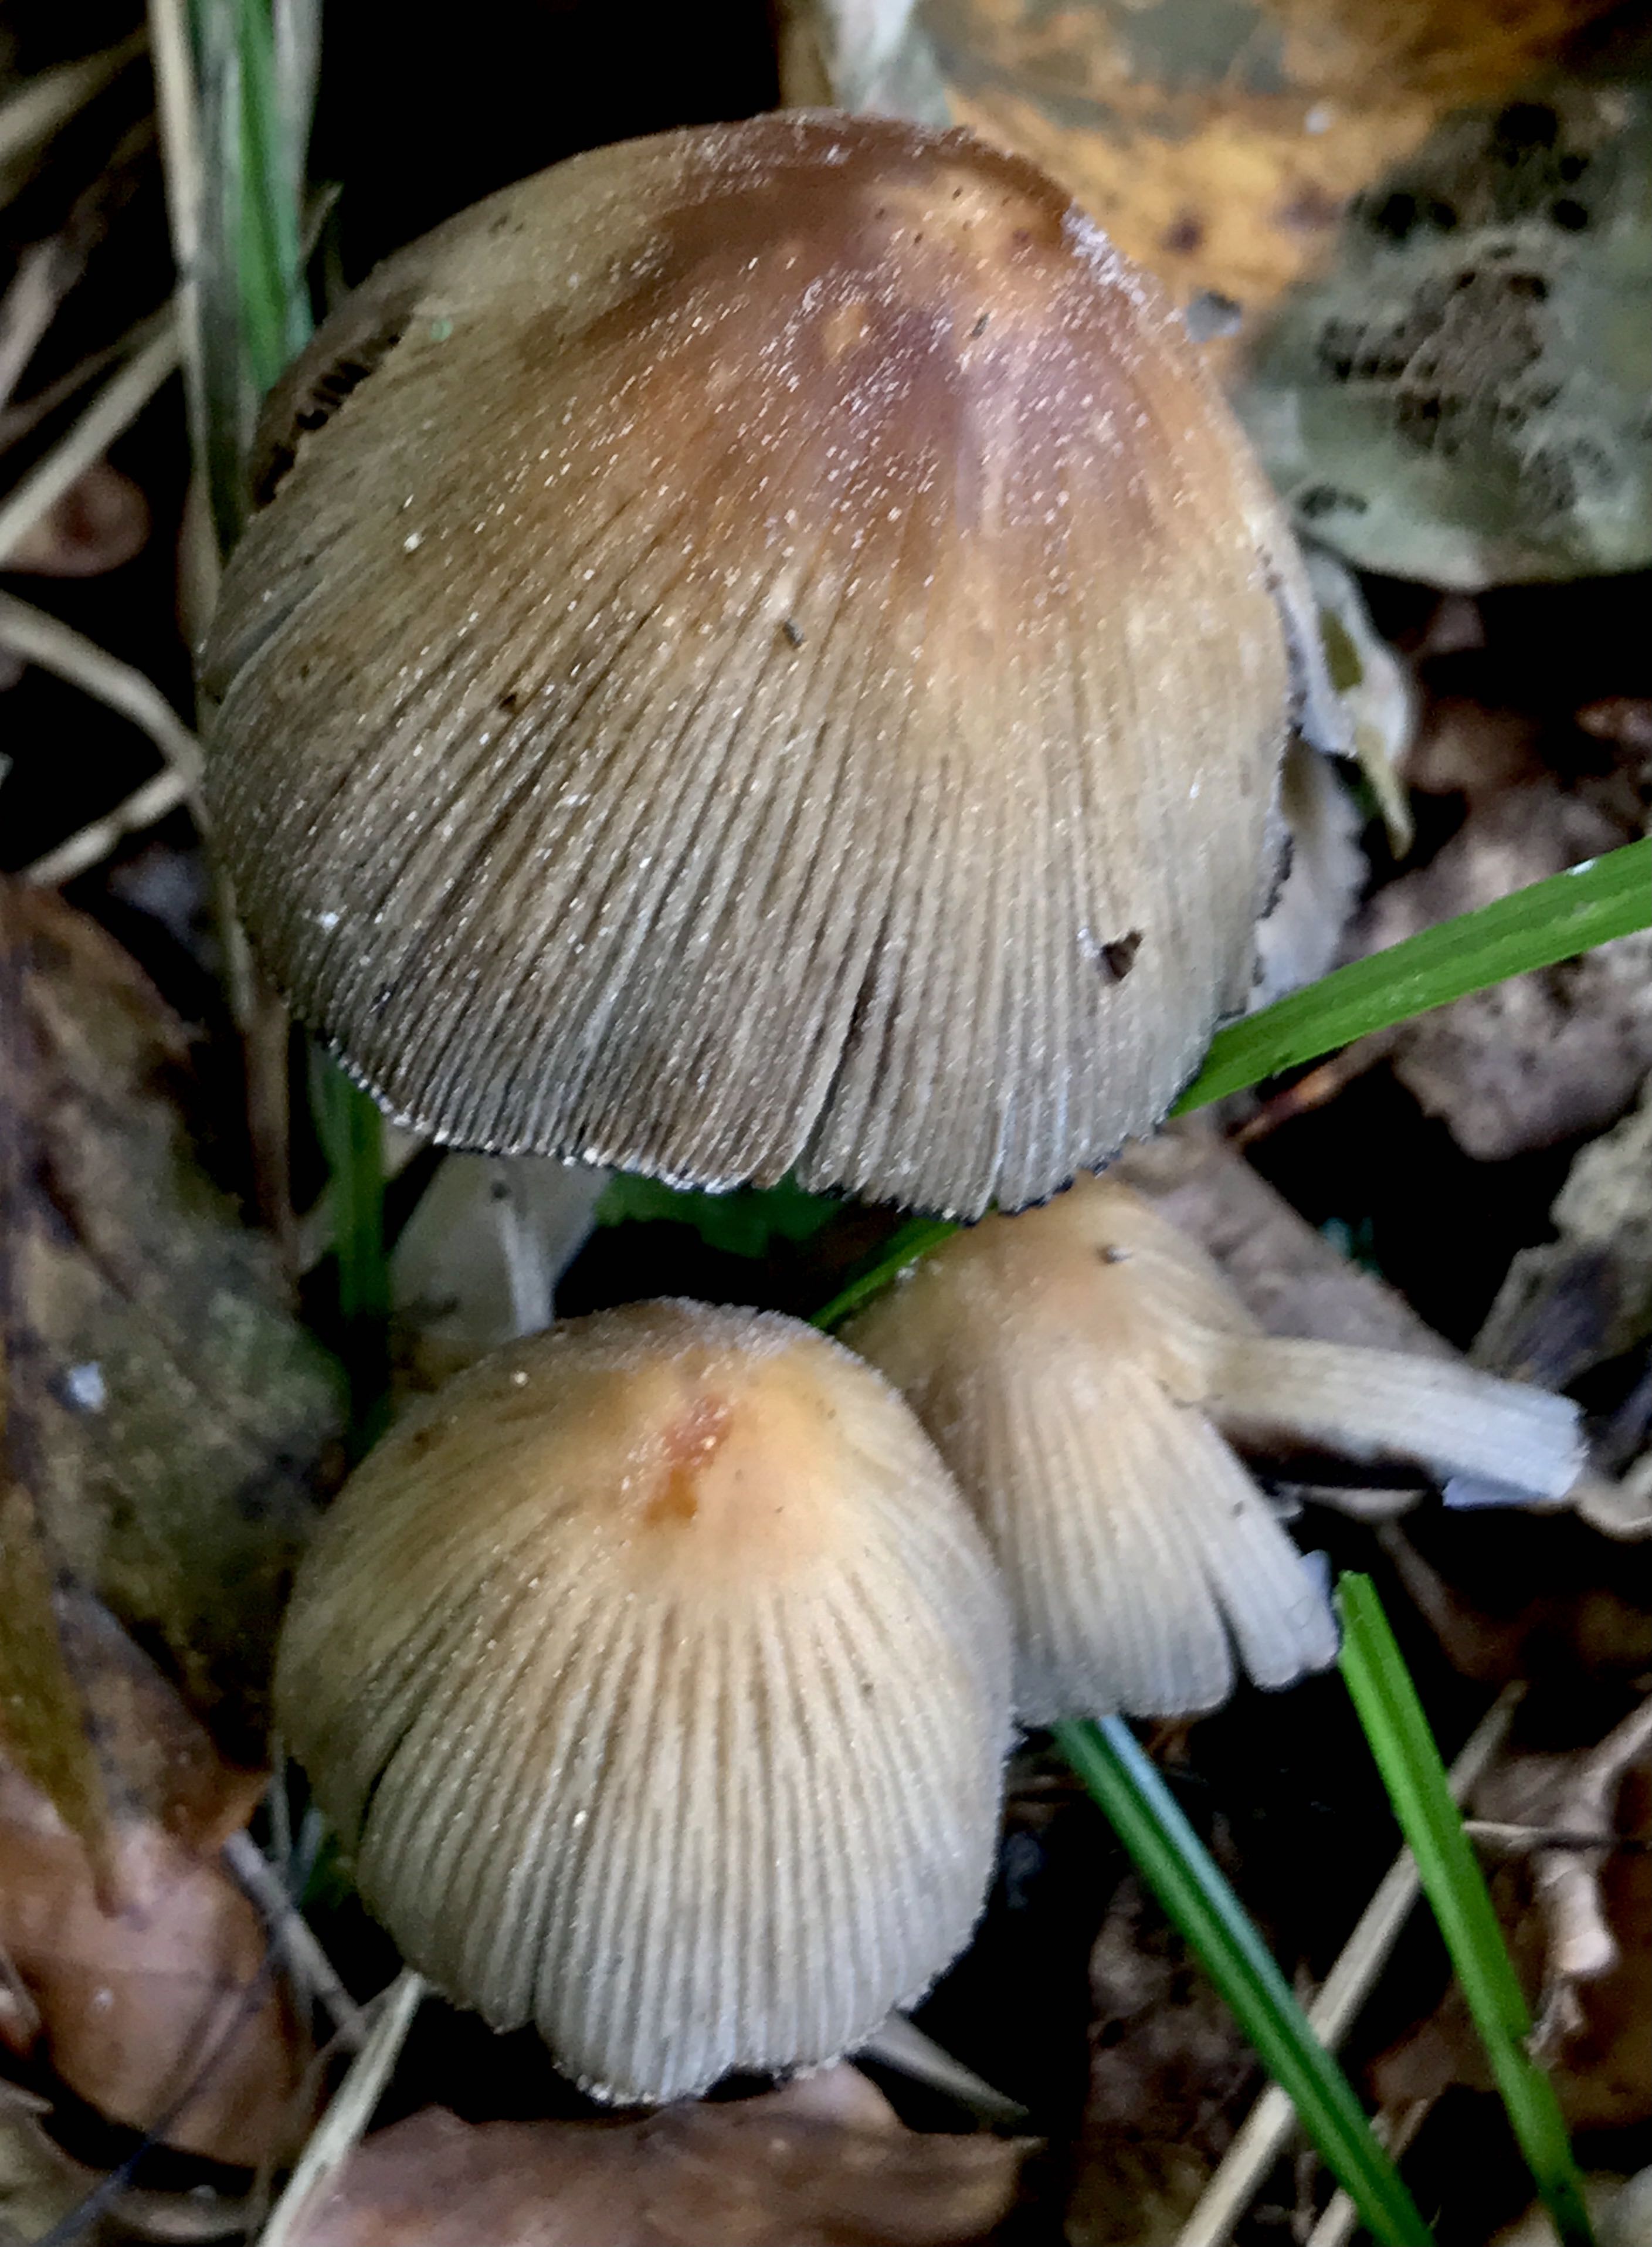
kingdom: Fungi
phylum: Basidiomycota
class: Agaricomycetes
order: Agaricales
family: Psathyrellaceae
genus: Coprinellus
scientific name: Coprinellus micaceus
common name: glimmer-blækhat
